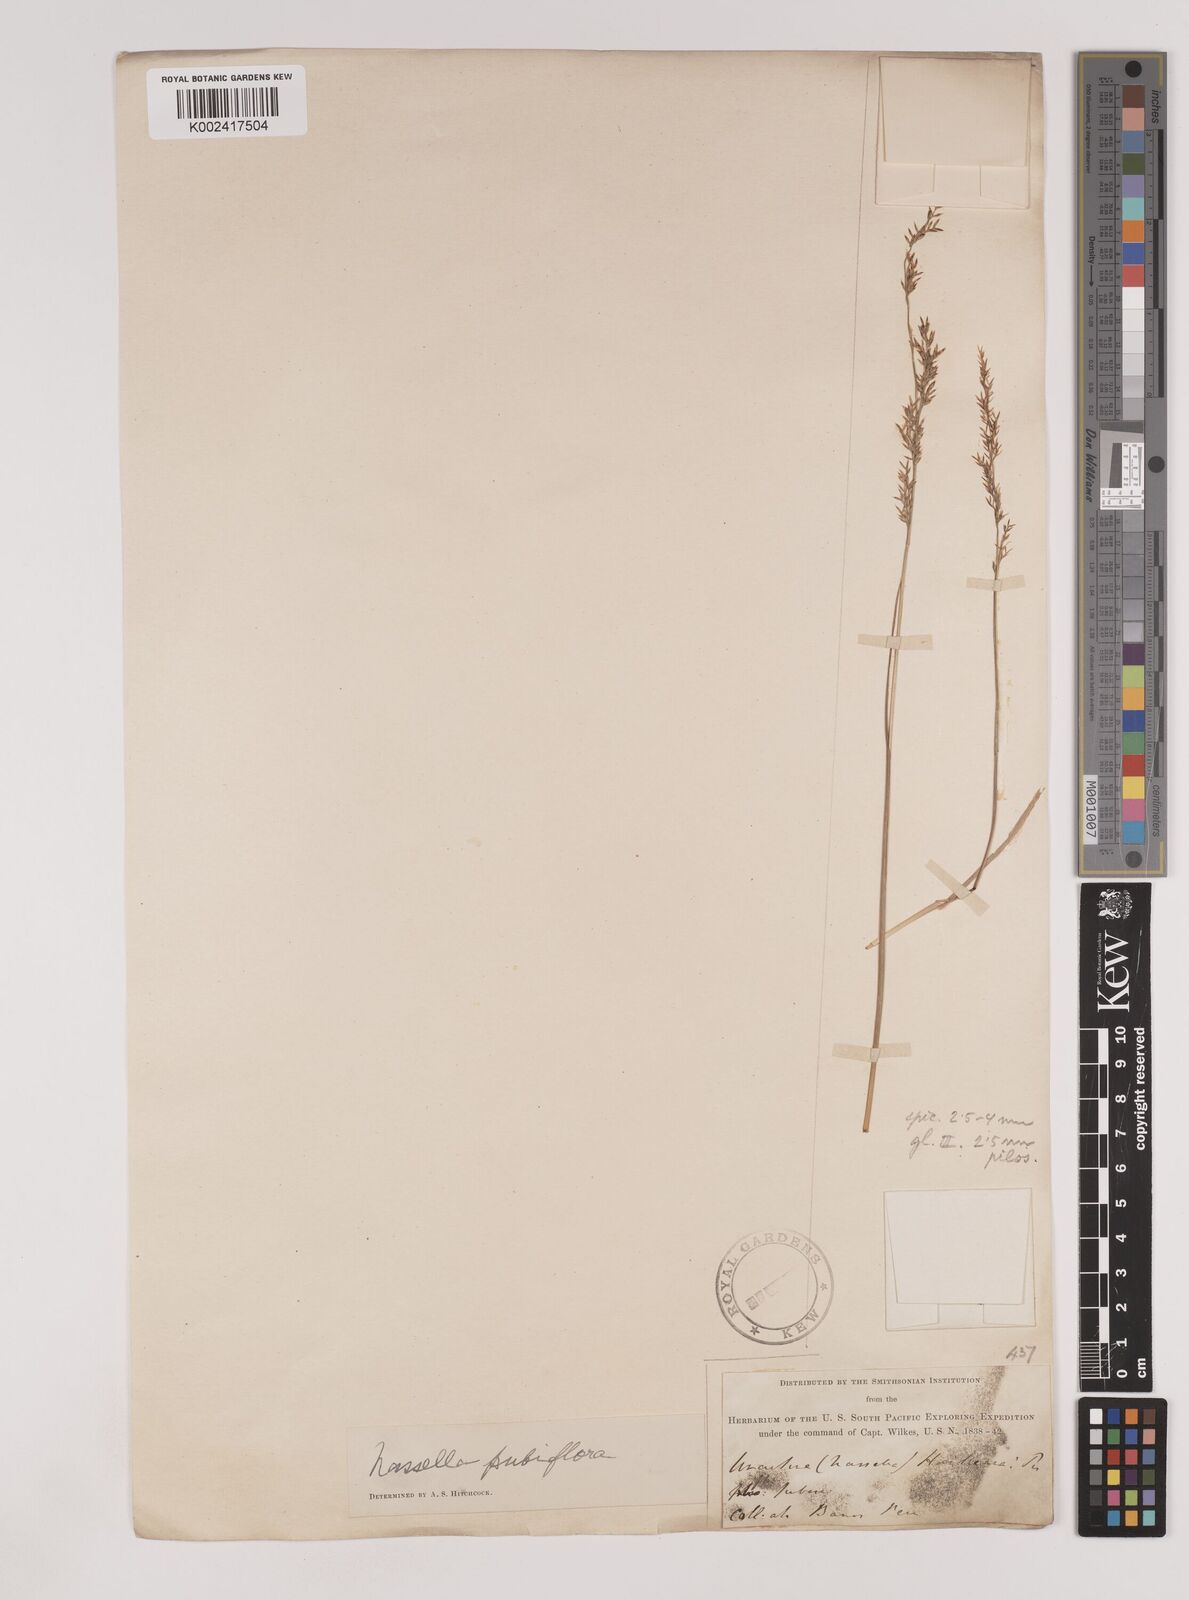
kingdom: Plantae
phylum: Tracheophyta
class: Liliopsida
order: Poales
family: Poaceae
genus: Nassella
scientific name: Nassella pubiflora
